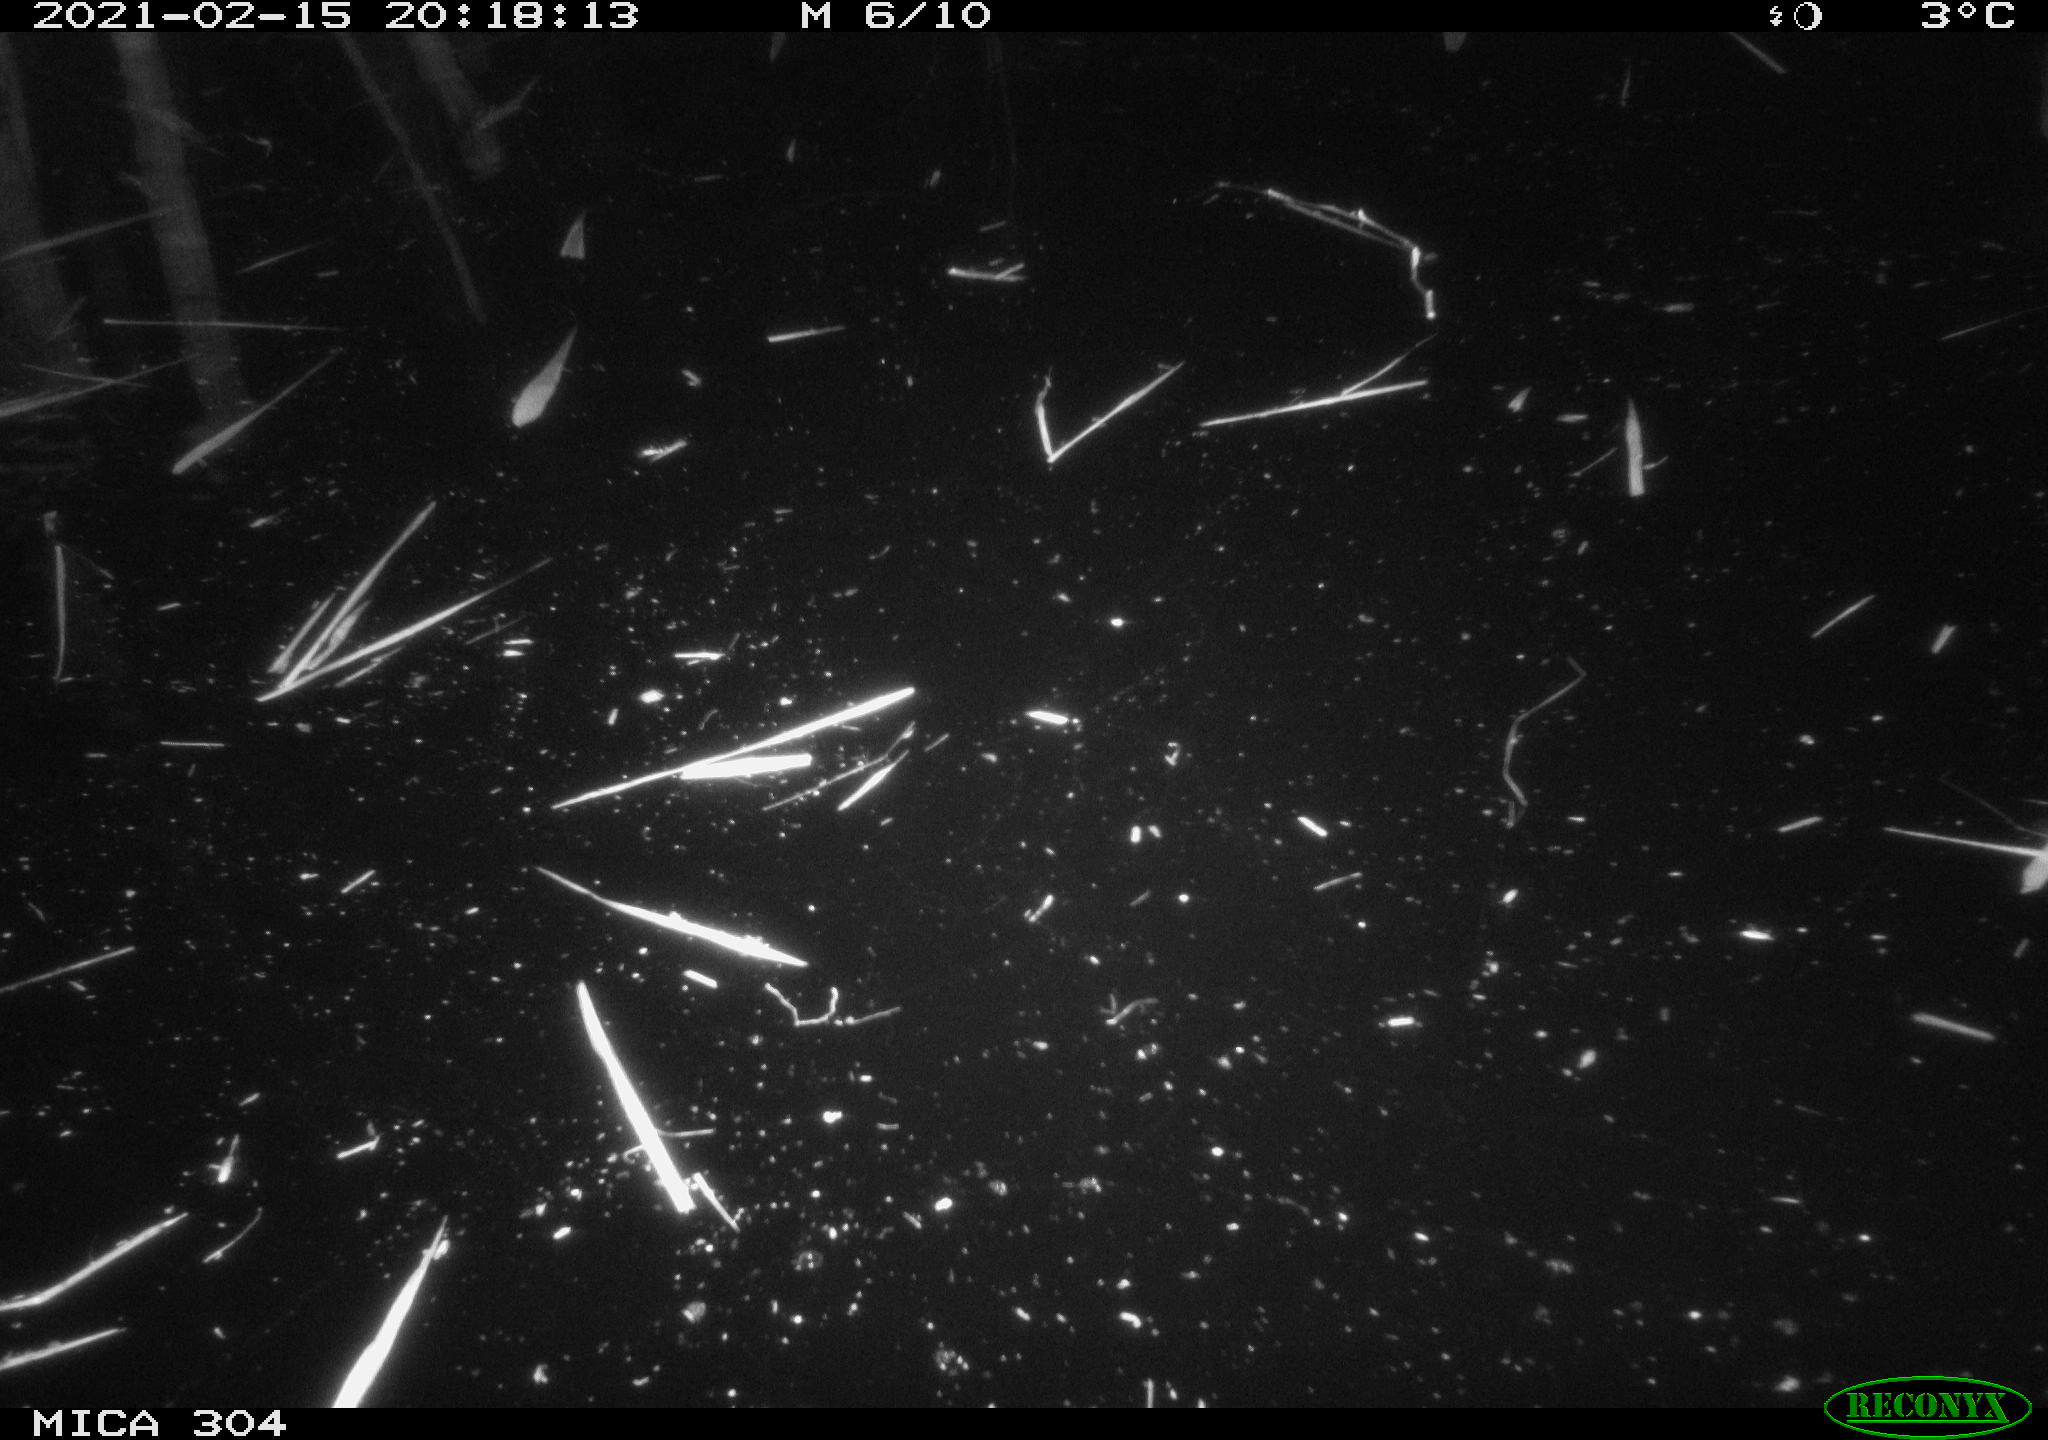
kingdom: Animalia
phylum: Chordata
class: Mammalia
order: Rodentia
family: Muridae
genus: Rattus
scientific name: Rattus norvegicus
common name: Brown rat
